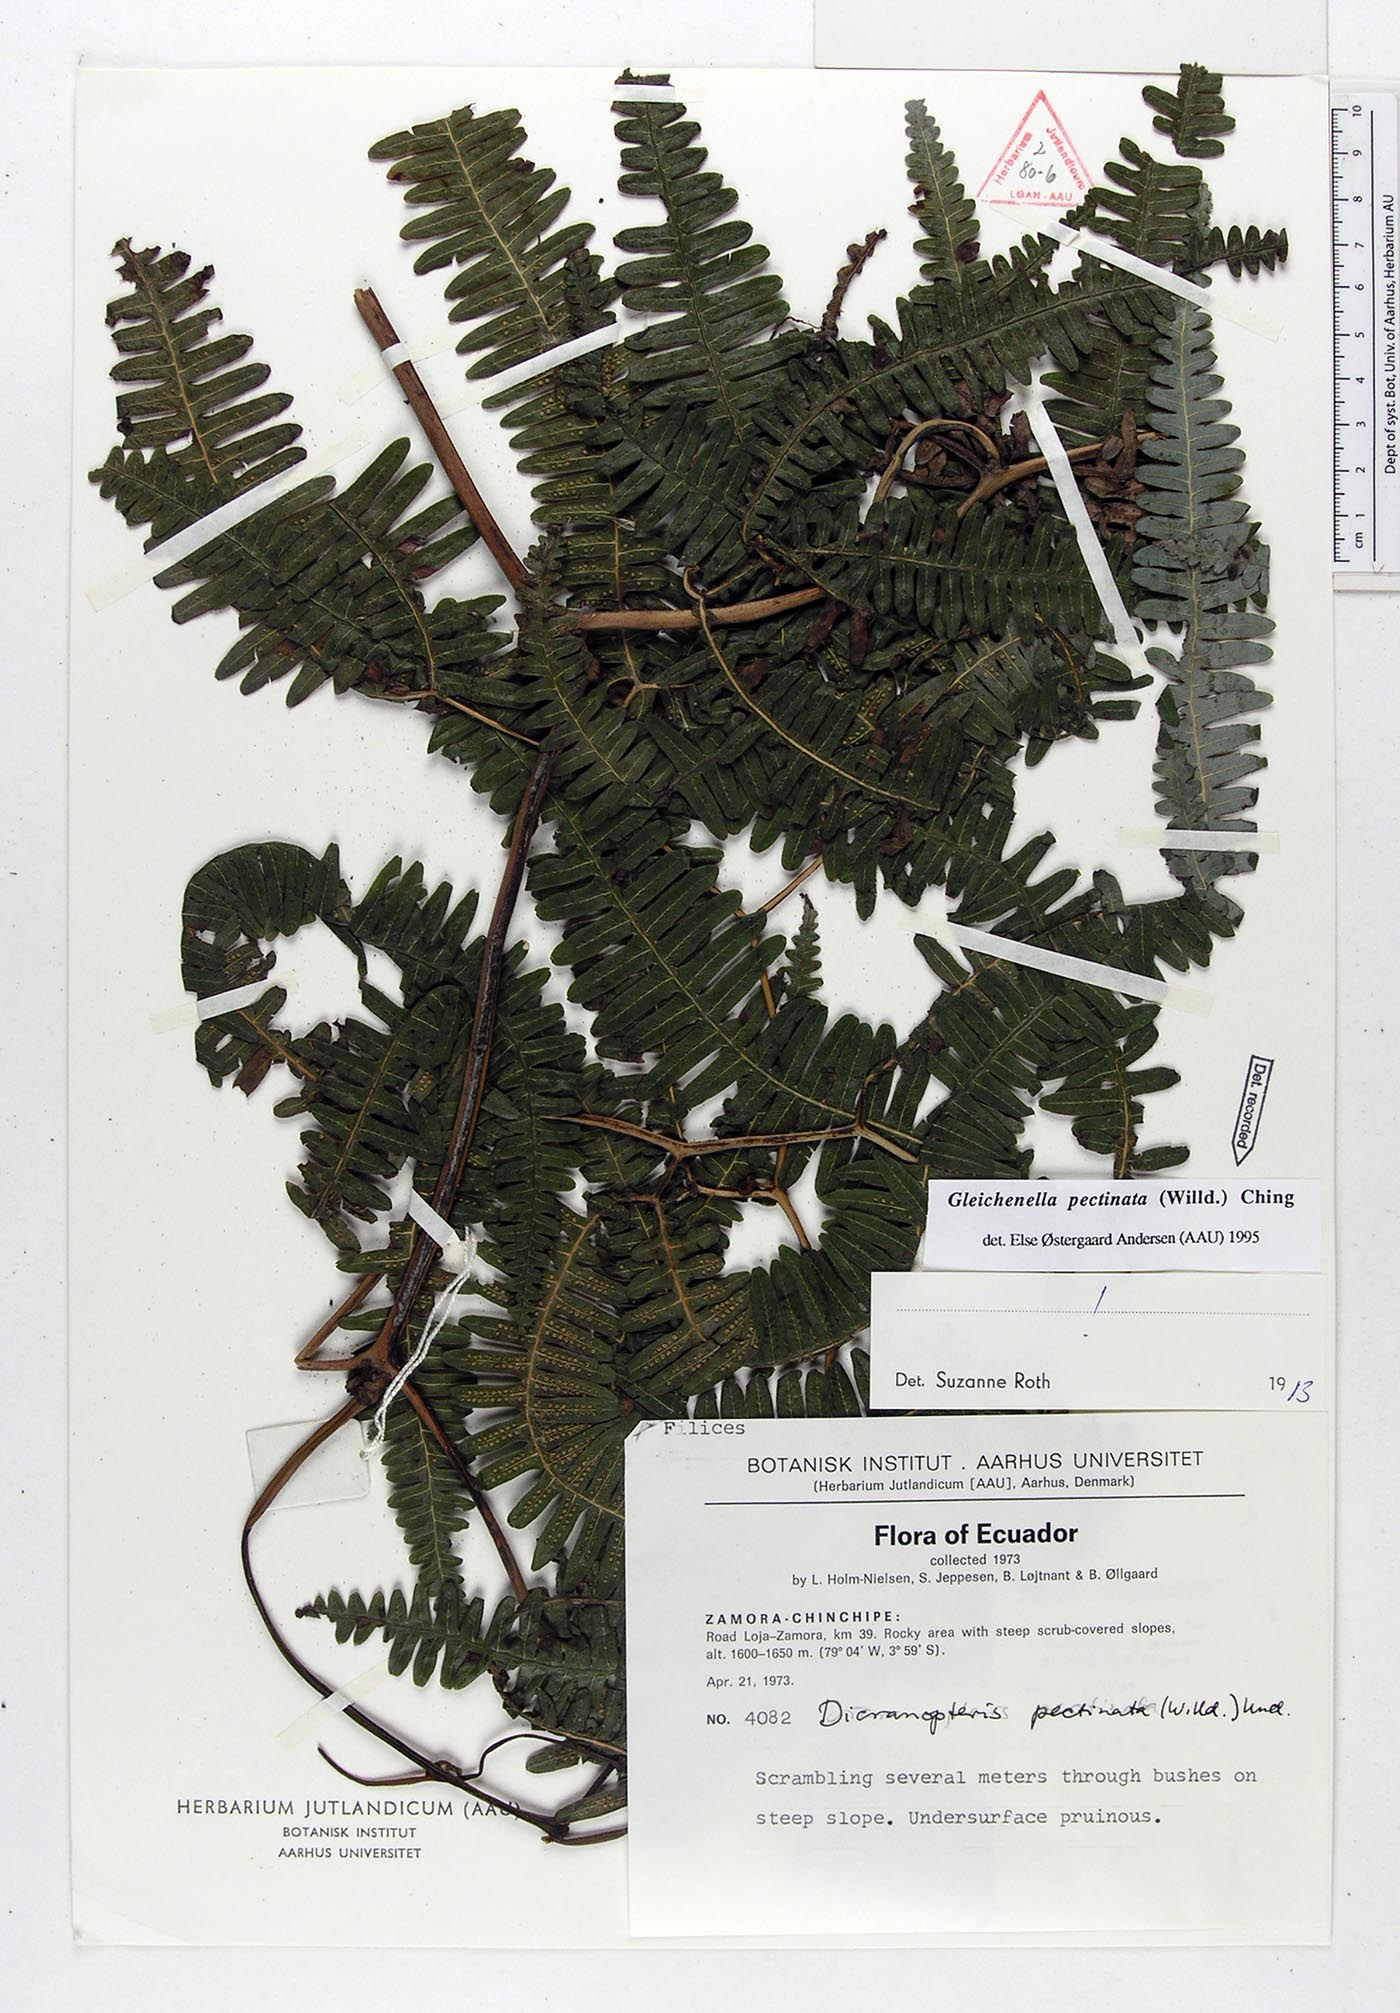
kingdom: Plantae
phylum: Tracheophyta
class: Polypodiopsida
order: Gleicheniales
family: Gleicheniaceae
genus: Gleichenella
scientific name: Gleichenella pectinata
